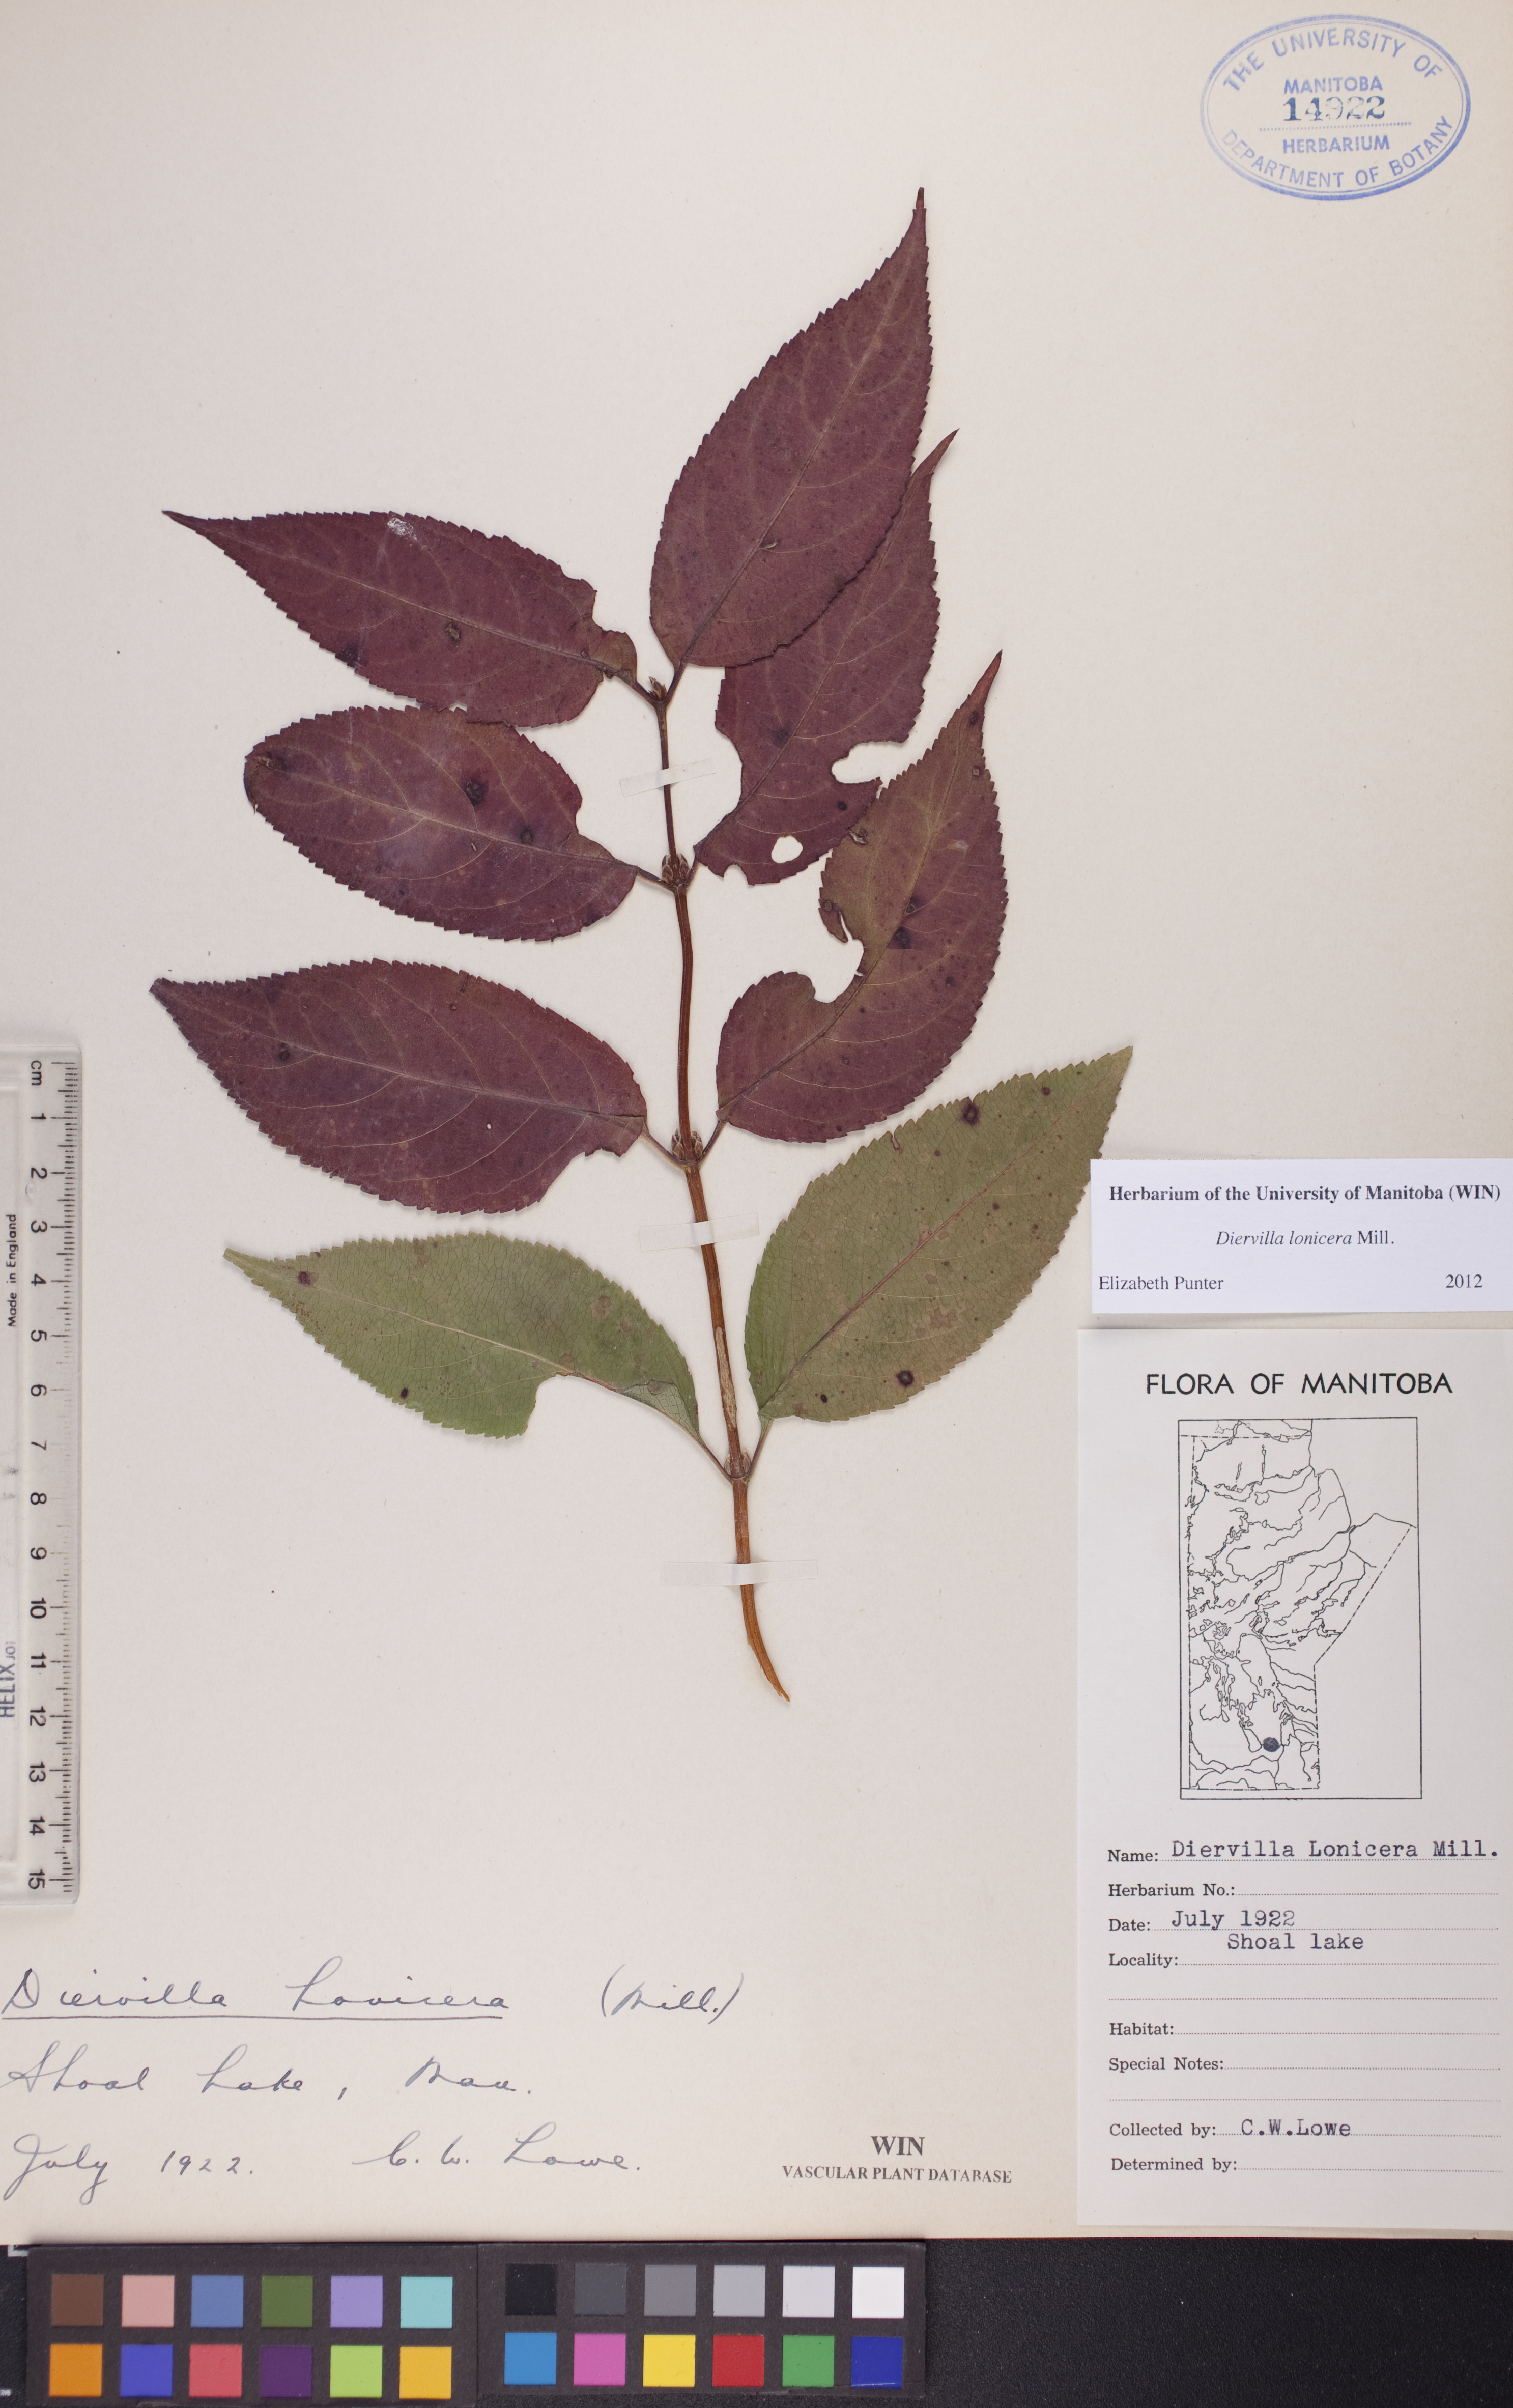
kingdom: Plantae
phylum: Tracheophyta
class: Magnoliopsida
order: Dipsacales
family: Caprifoliaceae
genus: Diervilla
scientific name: Diervilla lonicera
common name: Bush-honeysuckle
